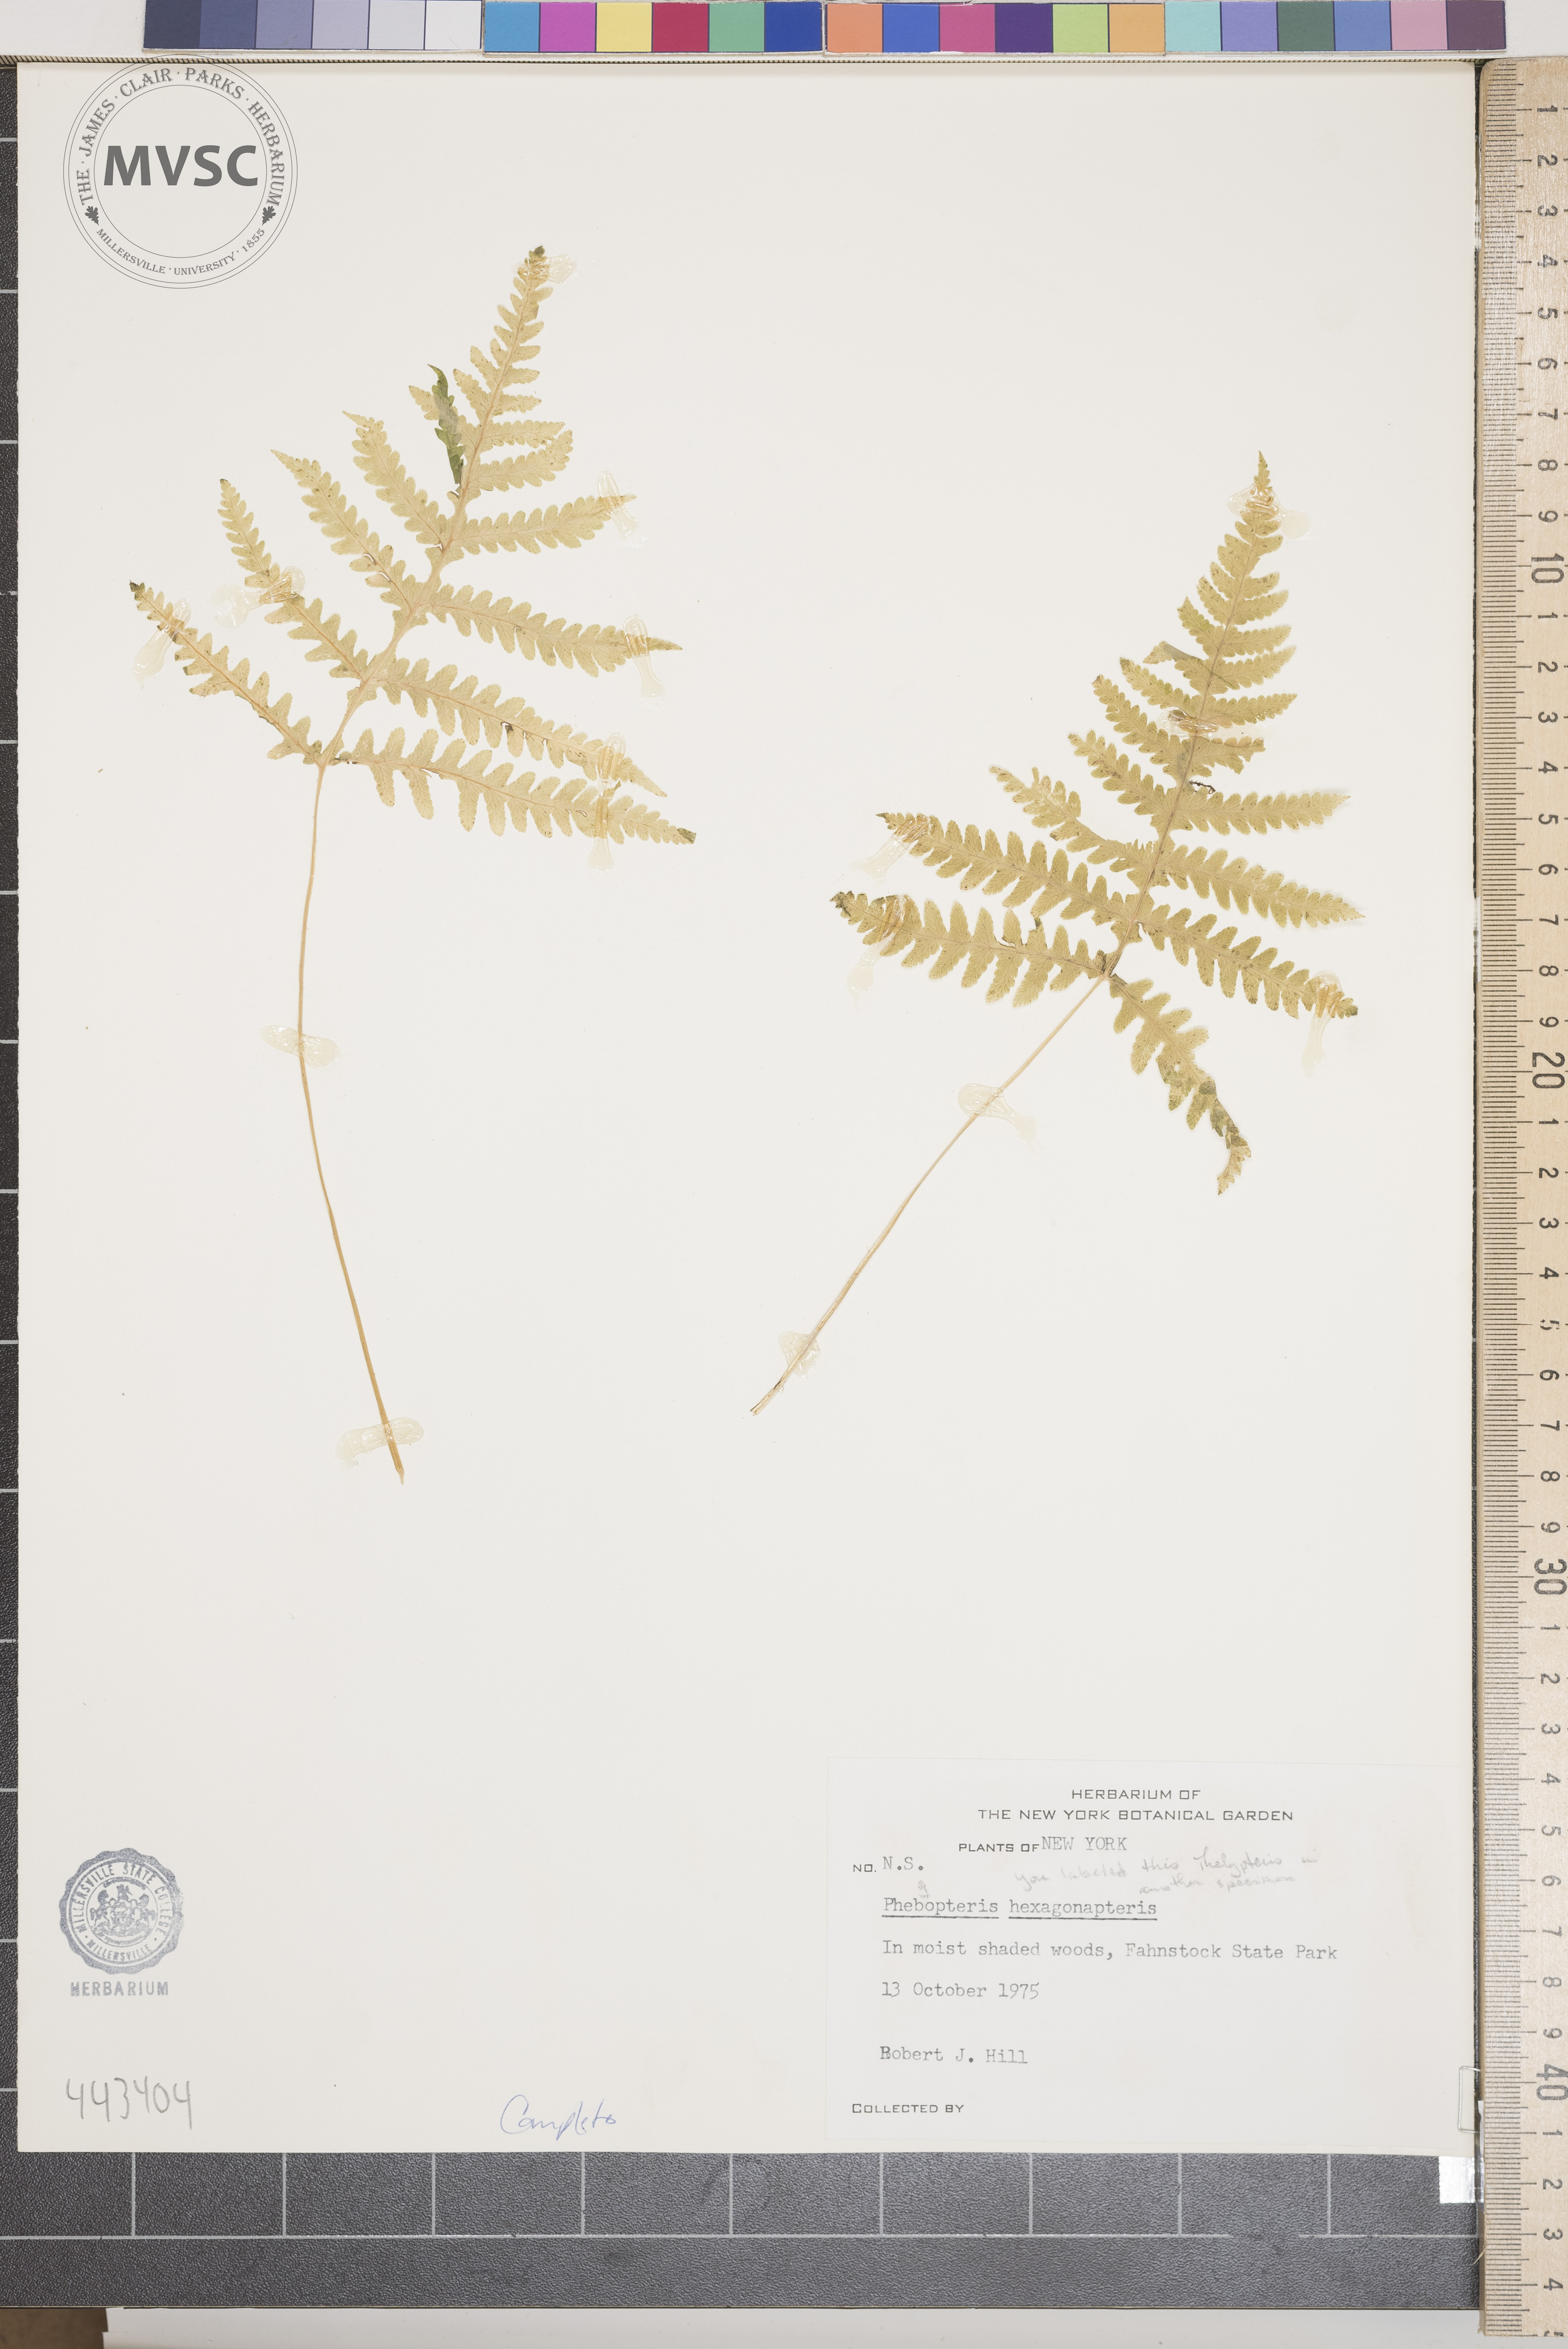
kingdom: Plantae
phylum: Tracheophyta
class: Polypodiopsida
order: Polypodiales
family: Thelypteridaceae
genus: Phegopteris
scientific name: Phegopteris hexagonoptera
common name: Broad beech fern
